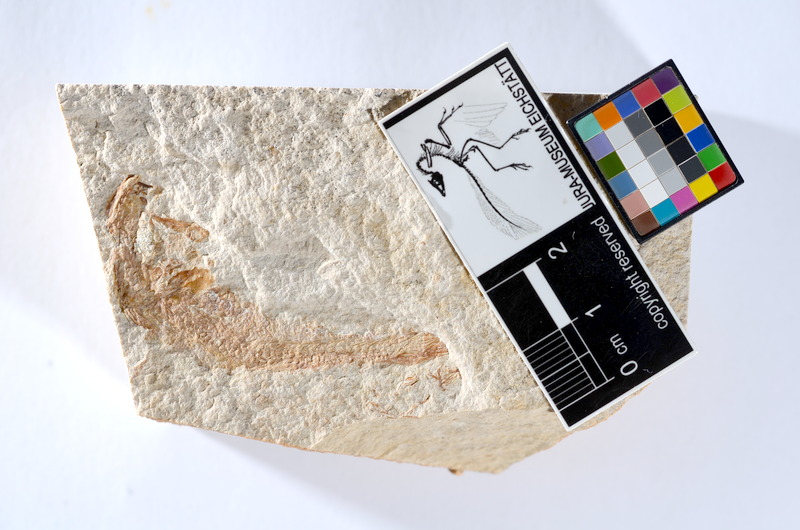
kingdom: Animalia
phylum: Chordata
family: Ascalaboidae
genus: Tharsis
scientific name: Tharsis dubius
